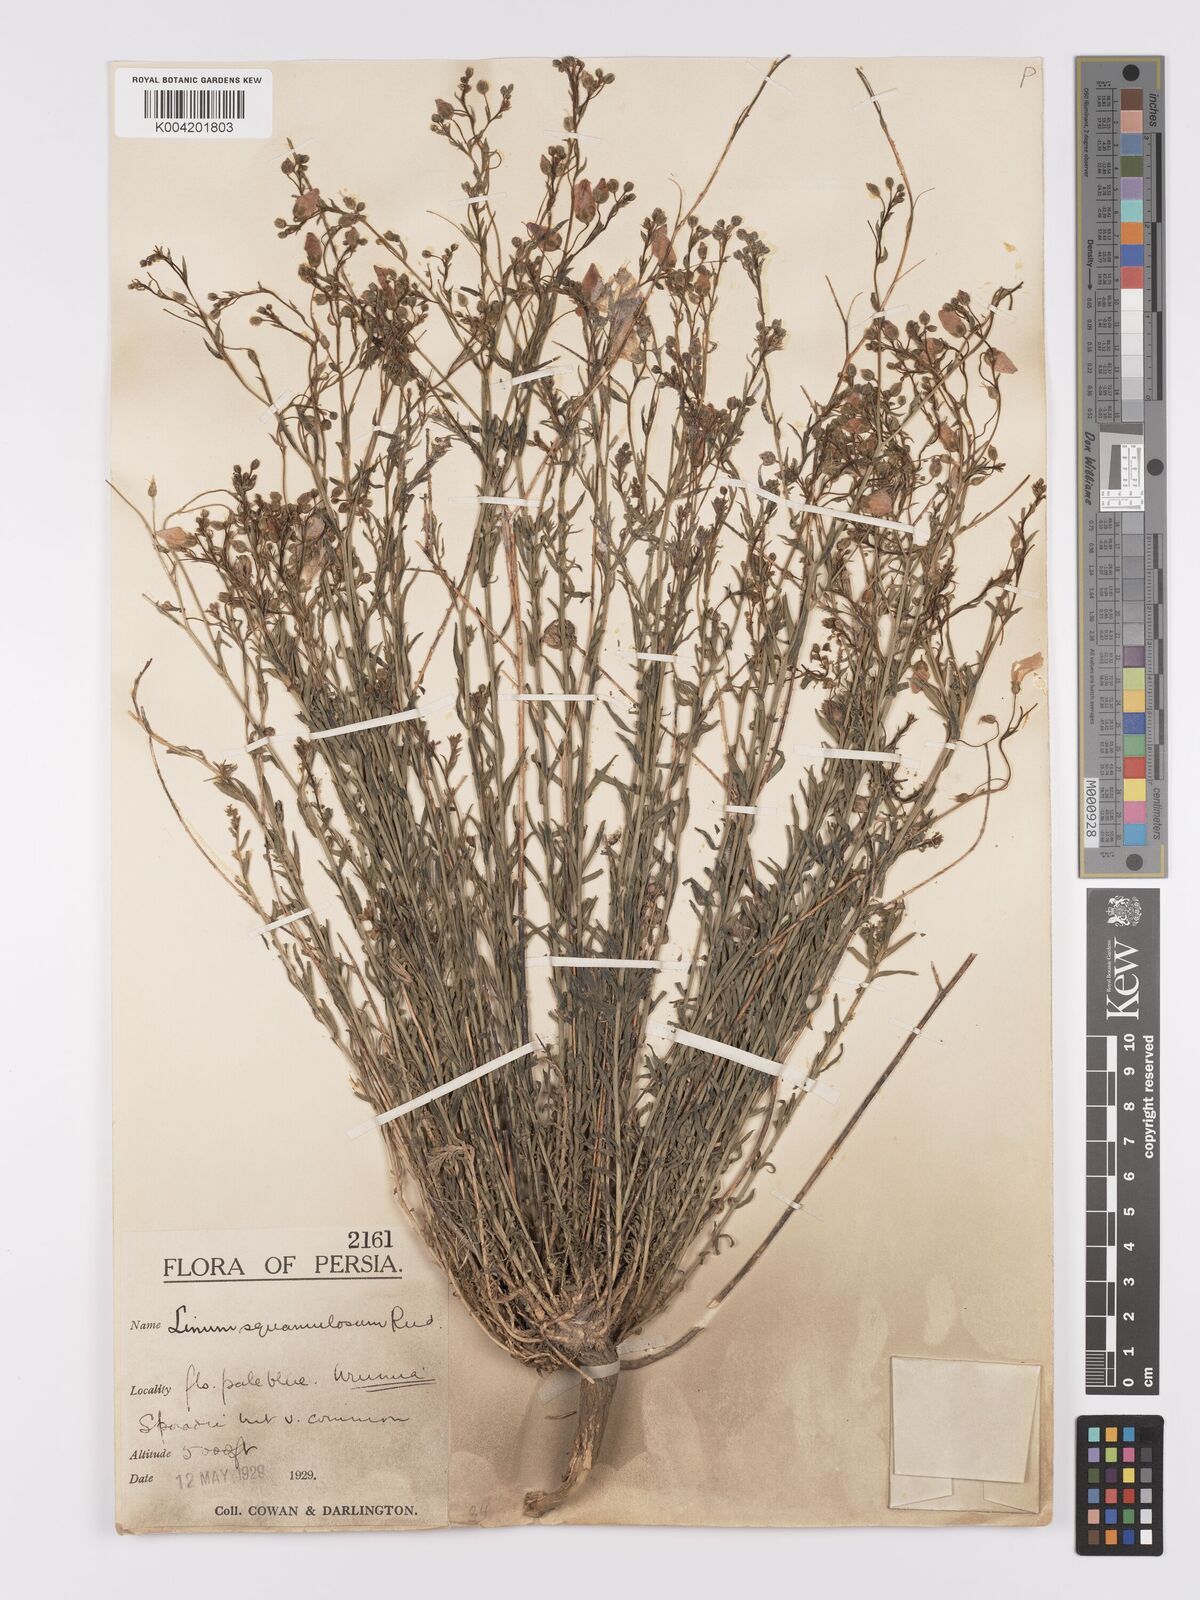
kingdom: Plantae
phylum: Tracheophyta
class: Magnoliopsida
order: Malpighiales
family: Linaceae
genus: Linum
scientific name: Linum
